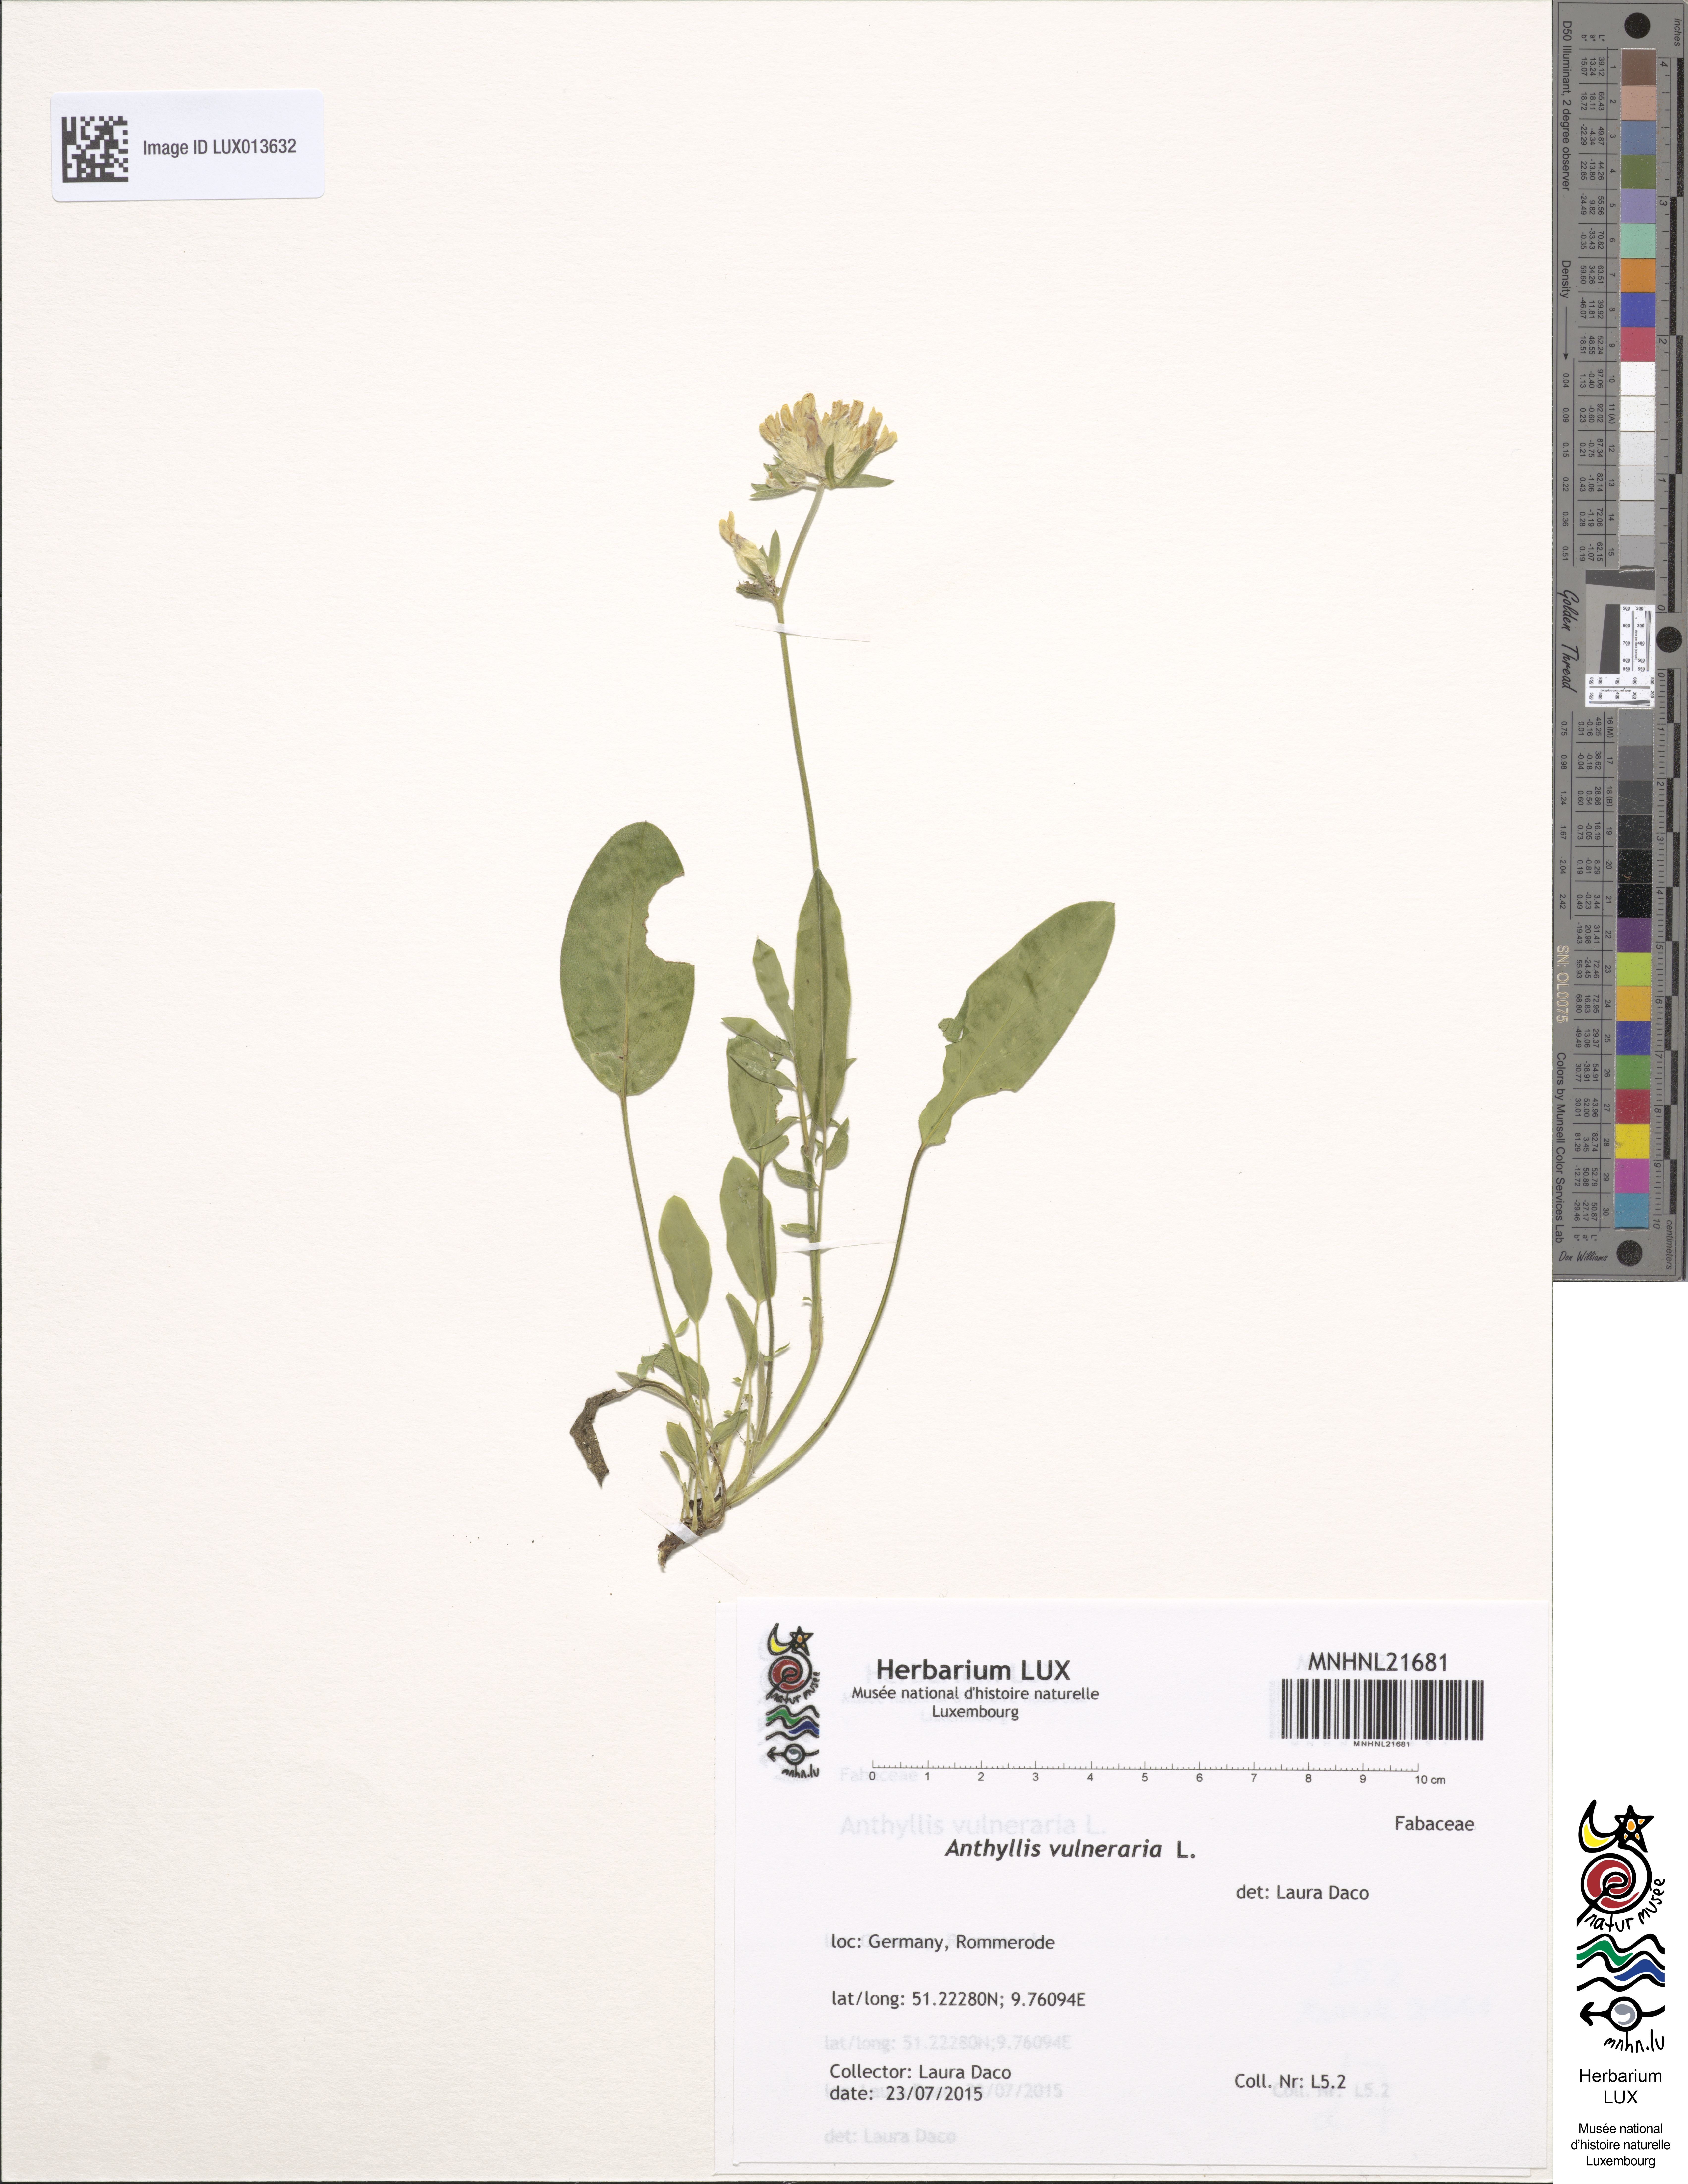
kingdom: Plantae
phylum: Tracheophyta
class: Magnoliopsida
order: Fabales
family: Fabaceae
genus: Anthyllis
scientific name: Anthyllis vulneraria
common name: Kidney vetch
